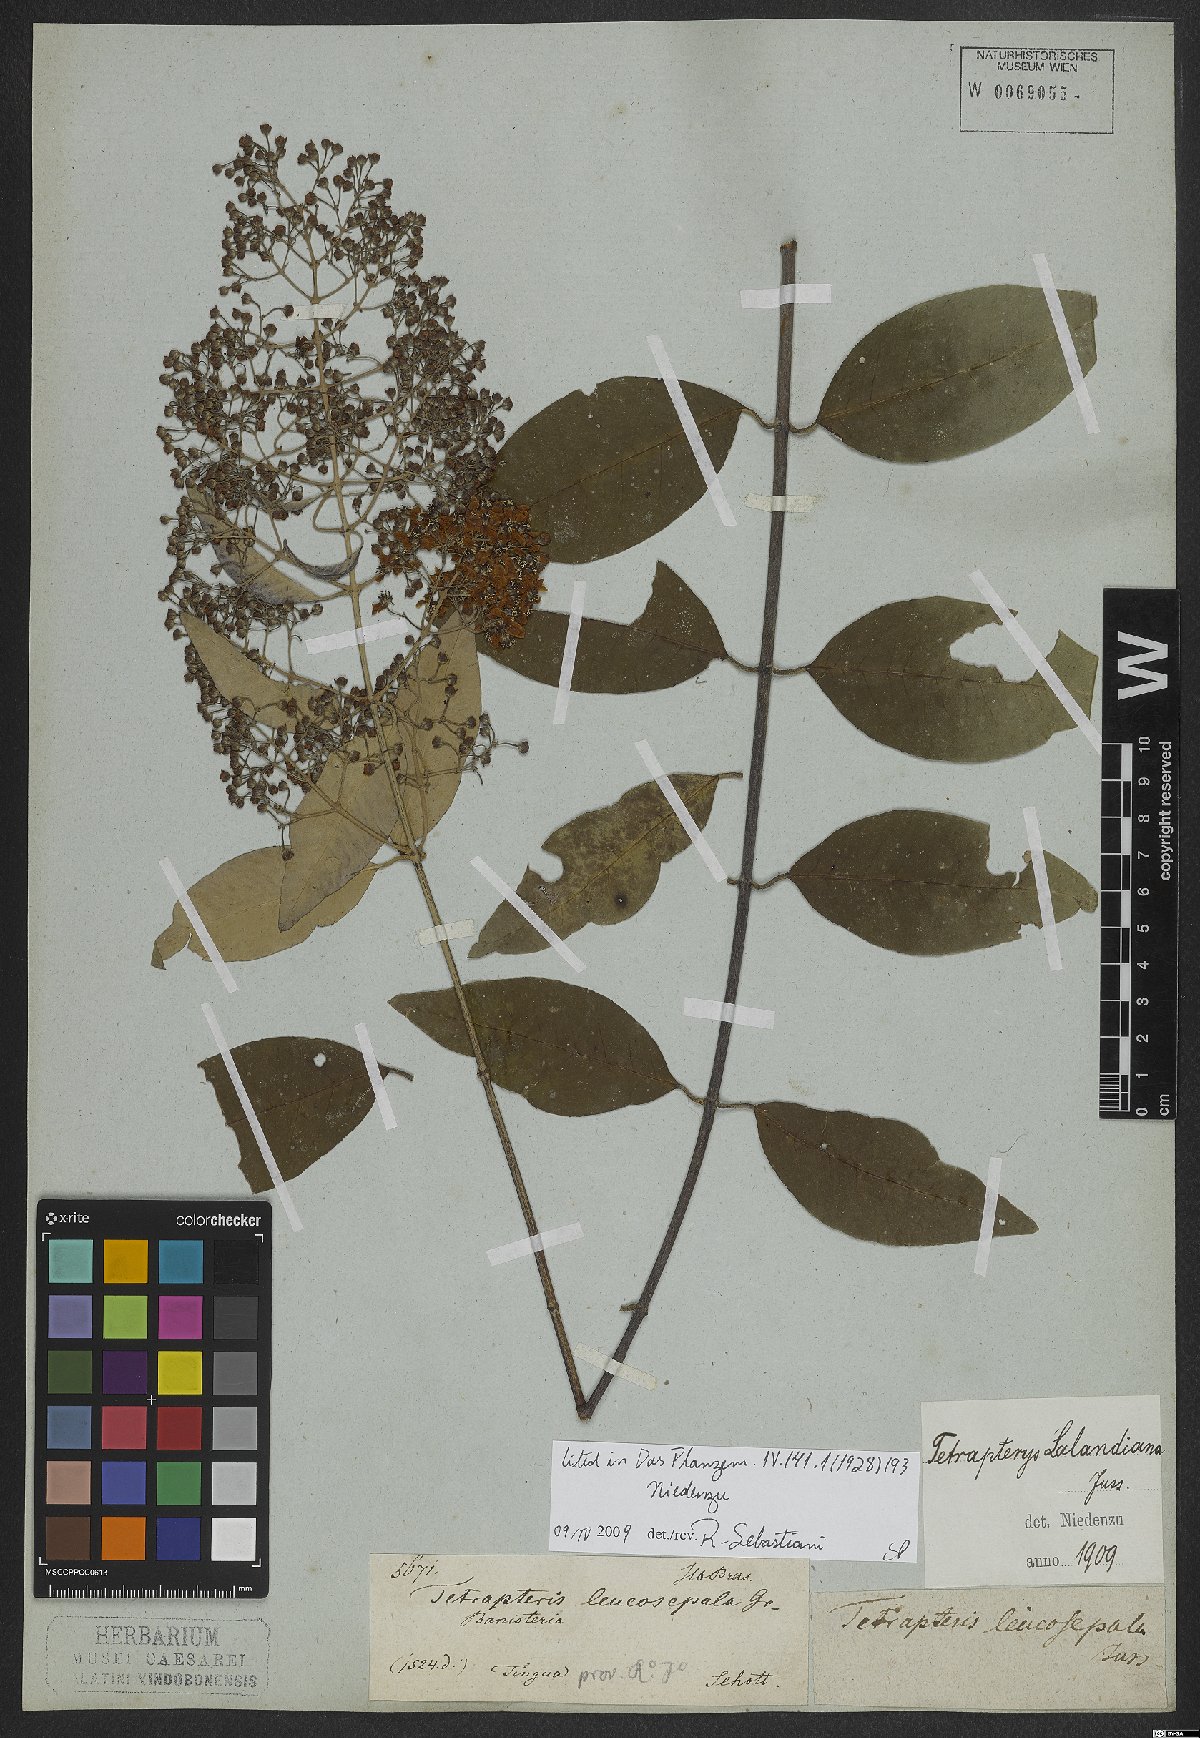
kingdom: Plantae
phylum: Tracheophyta
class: Magnoliopsida
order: Malpighiales
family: Malpighiaceae
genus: Niedenzuella
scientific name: Niedenzuella sericea
